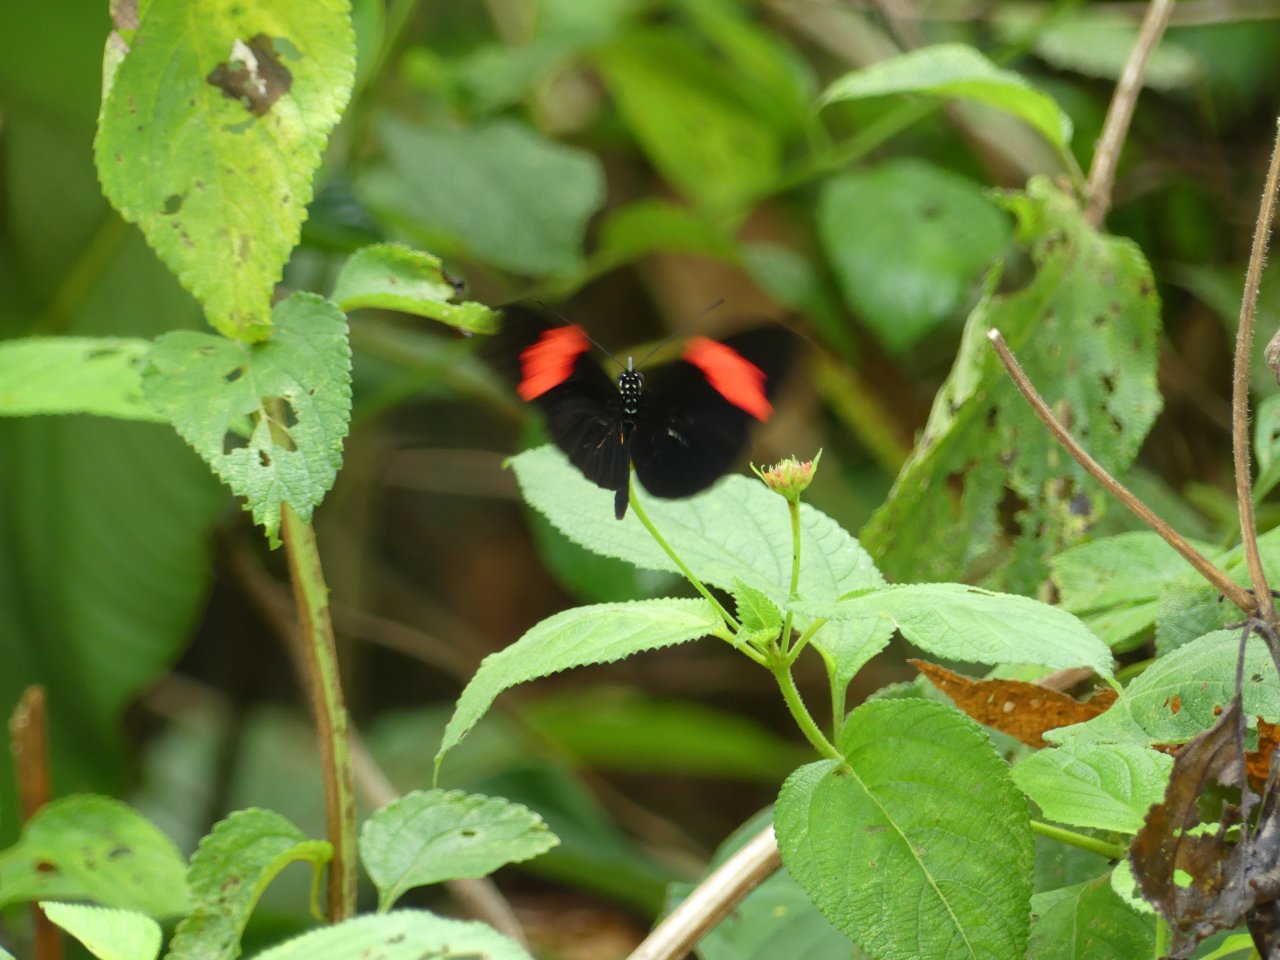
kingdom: Animalia
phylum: Arthropoda
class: Insecta
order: Lepidoptera
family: Nymphalidae
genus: Heliconius
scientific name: Heliconius erato
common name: Erato Heliconian
